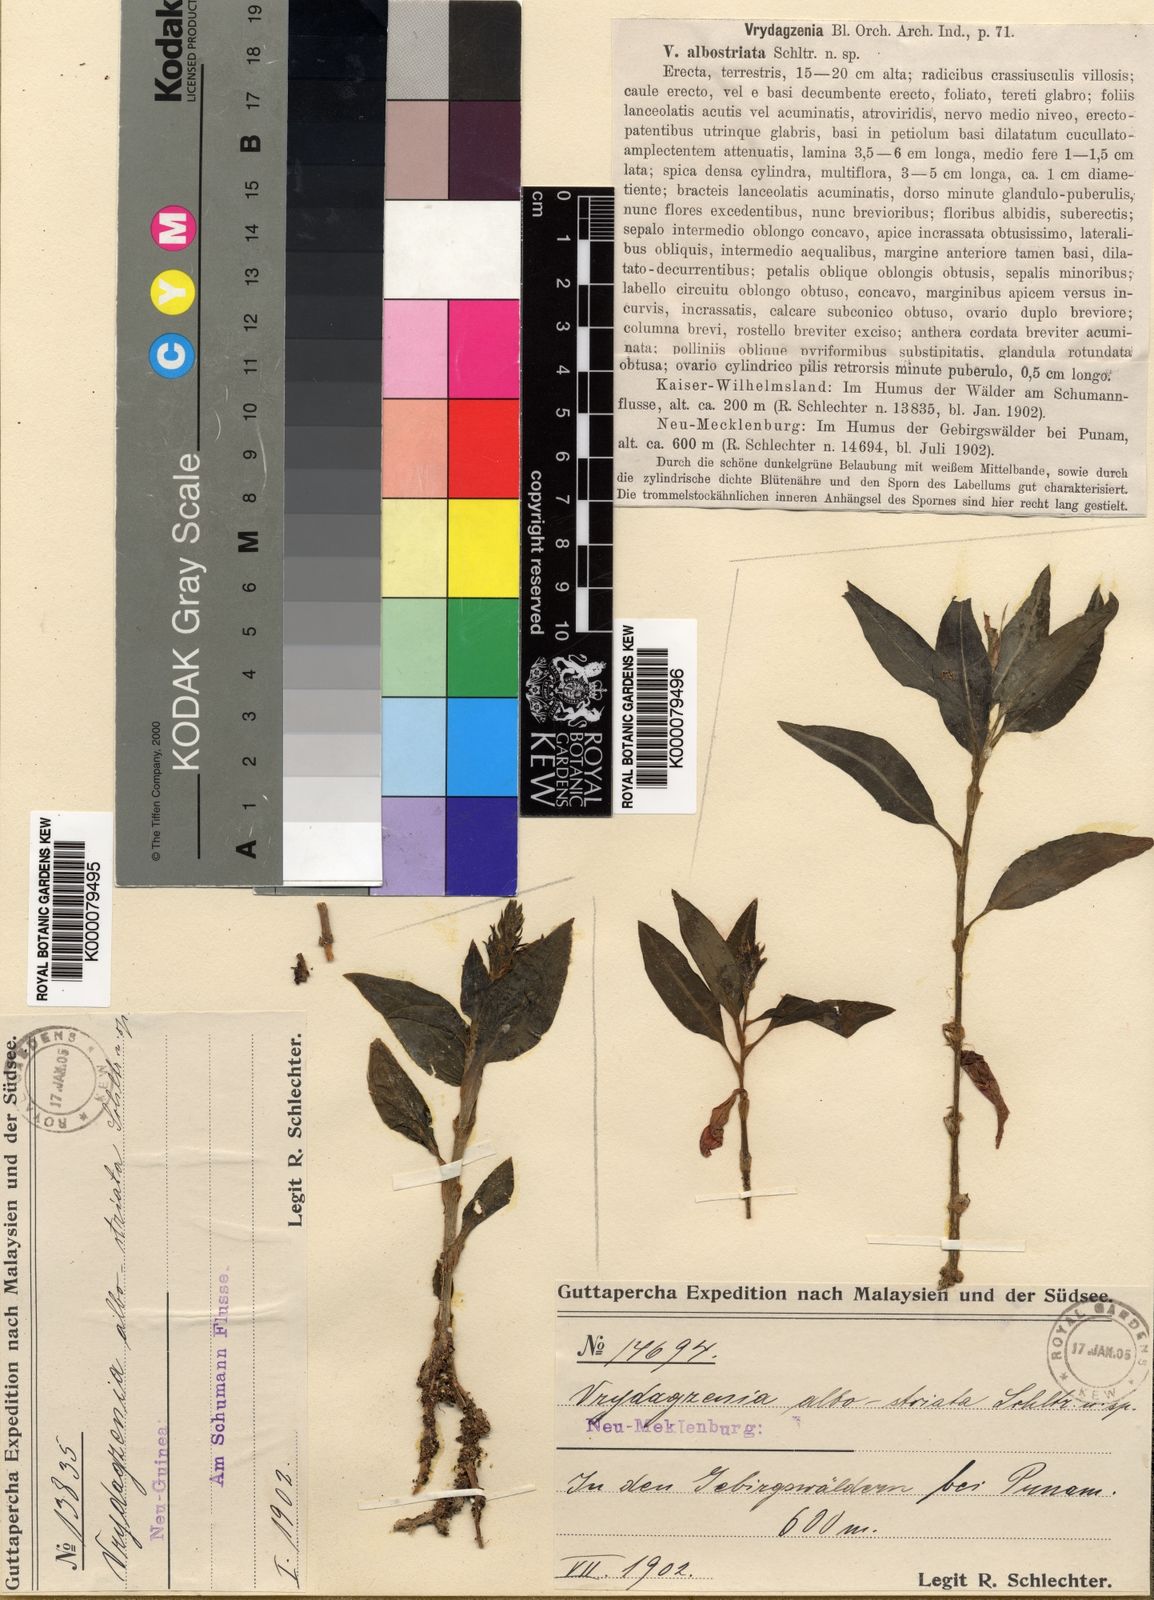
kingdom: Plantae
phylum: Tracheophyta
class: Liliopsida
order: Asparagales
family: Orchidaceae
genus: Vrydagzynea
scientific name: Vrydagzynea albostriata
